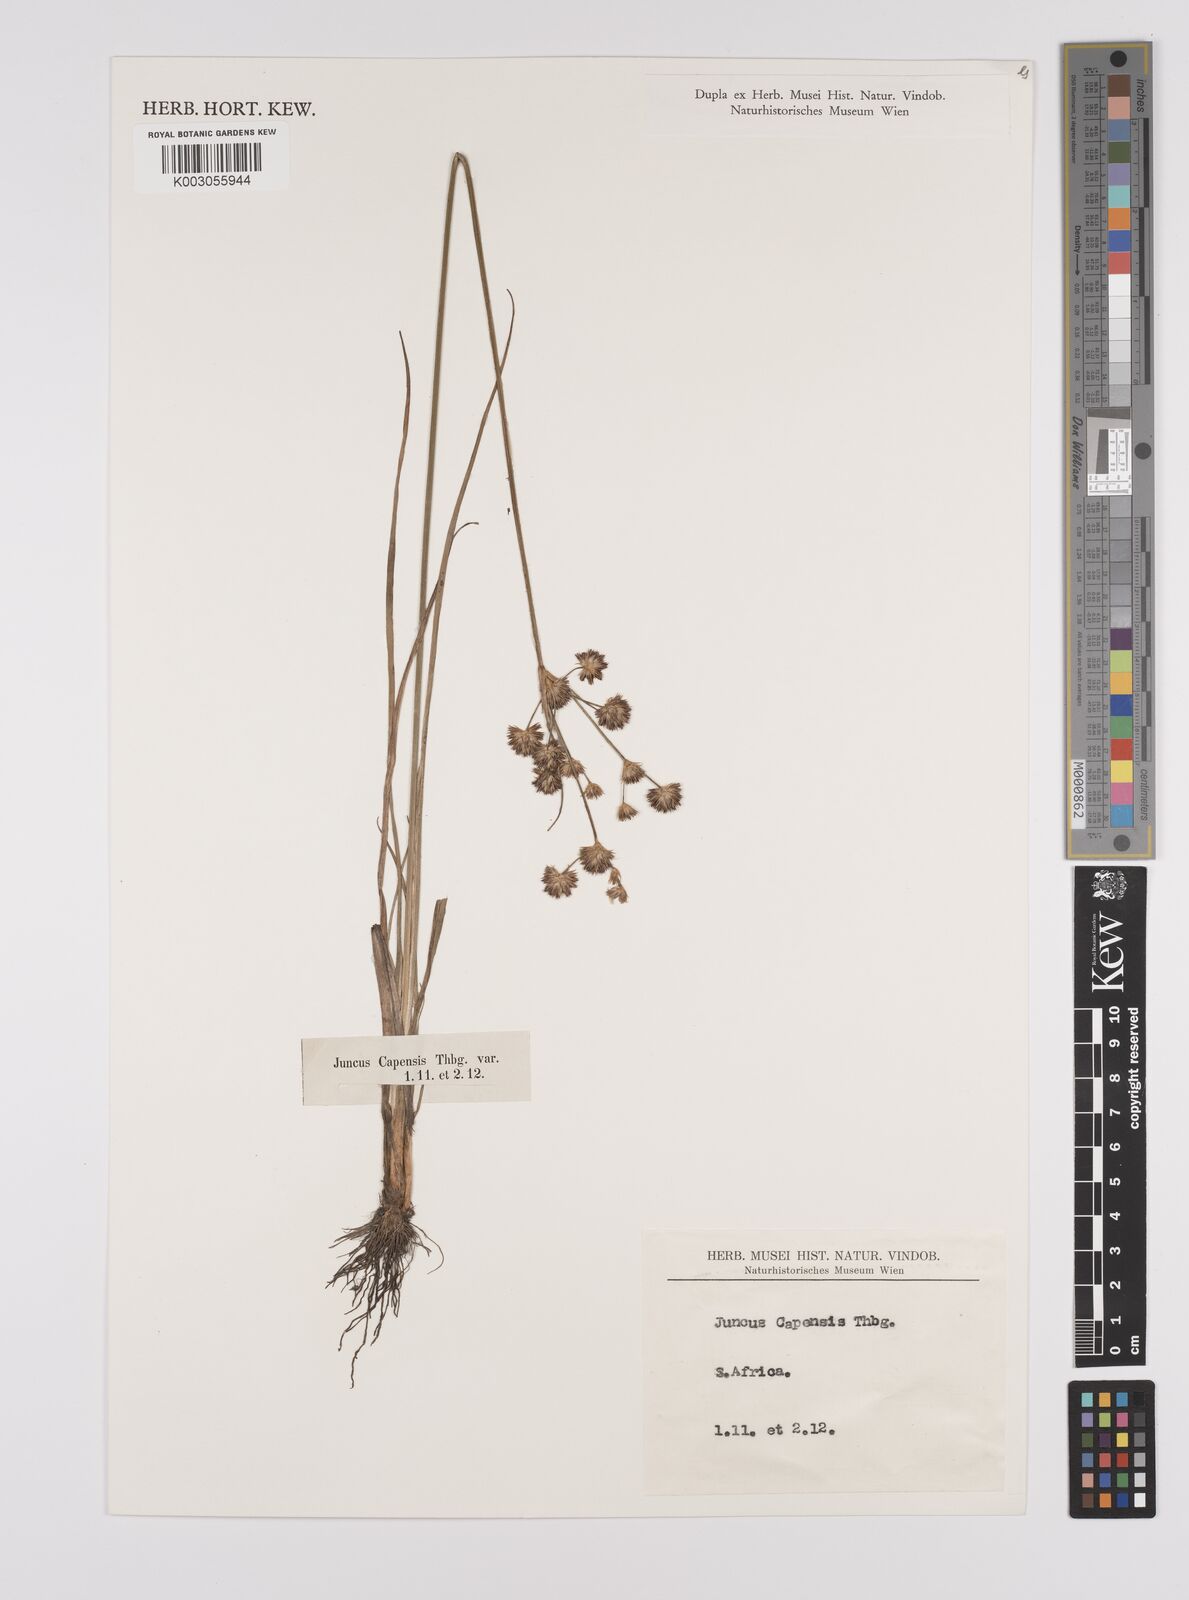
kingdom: Plantae
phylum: Tracheophyta
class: Liliopsida
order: Poales
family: Juncaceae
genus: Juncus
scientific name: Juncus capensis
